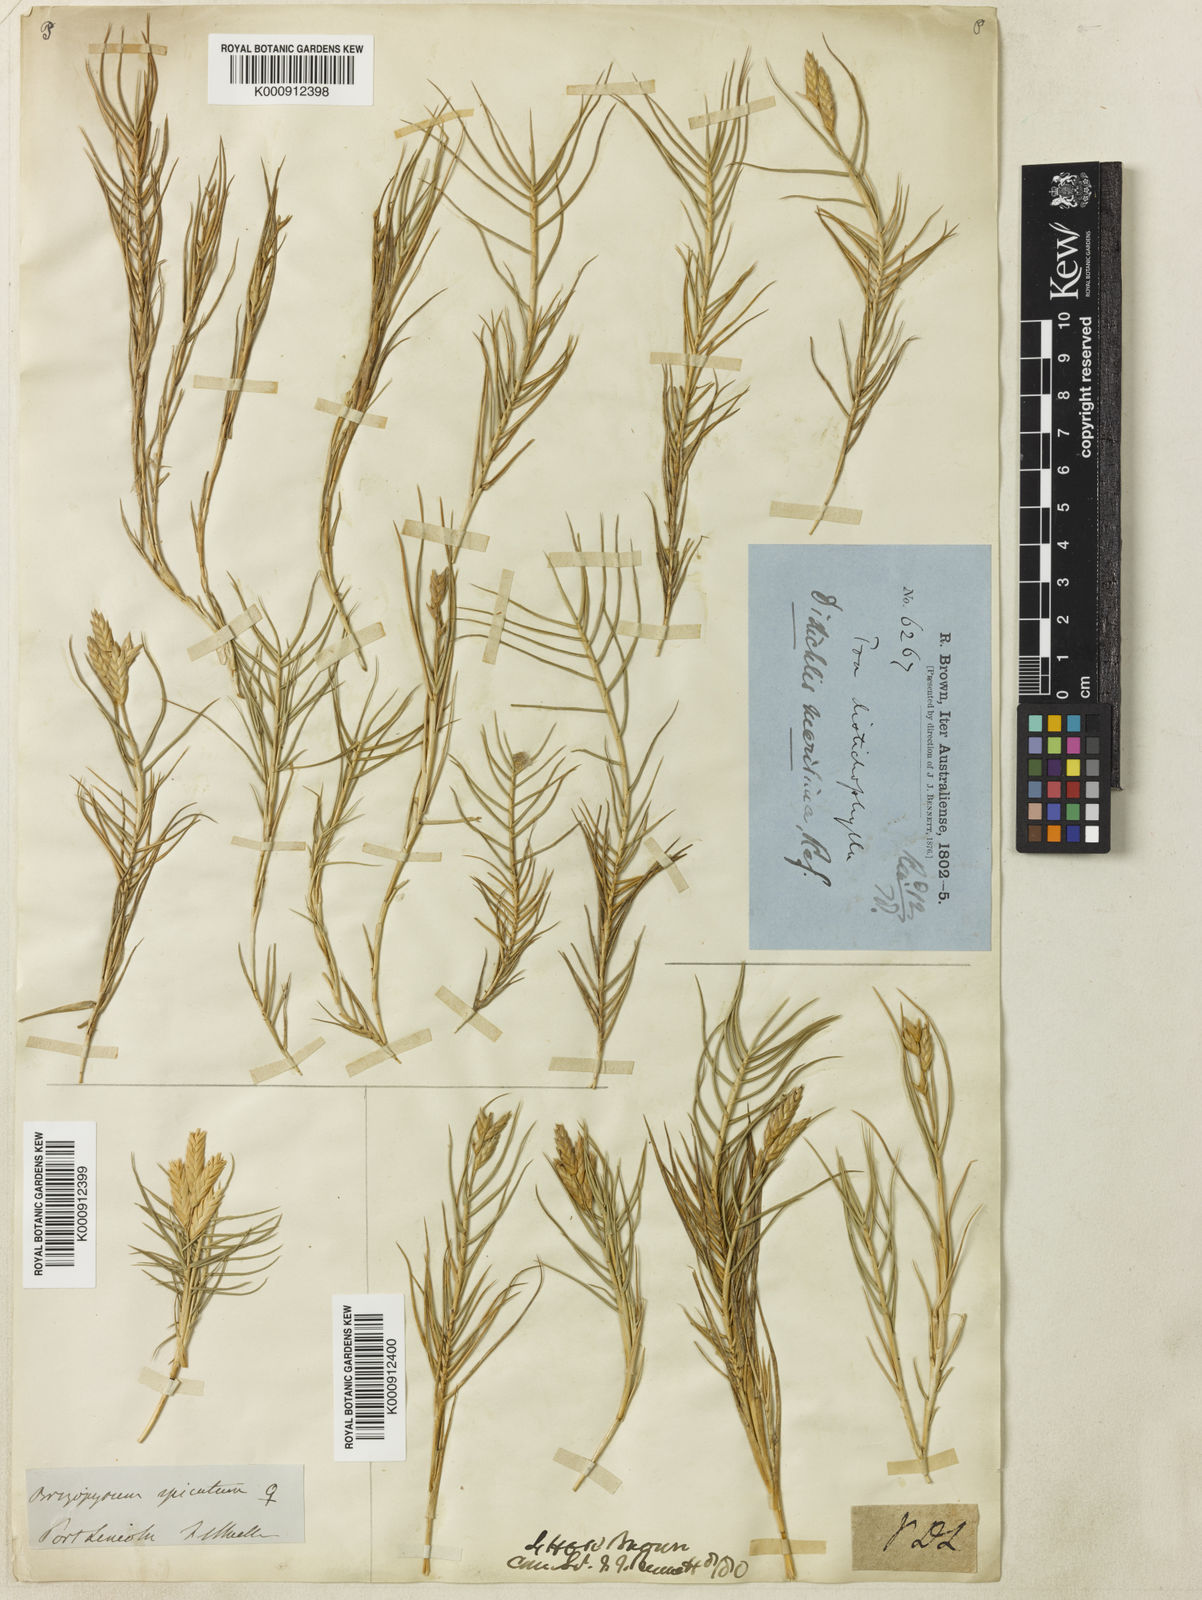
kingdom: Plantae
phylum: Tracheophyta
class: Liliopsida
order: Poales
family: Poaceae
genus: Distichlis
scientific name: Distichlis distichophylla
